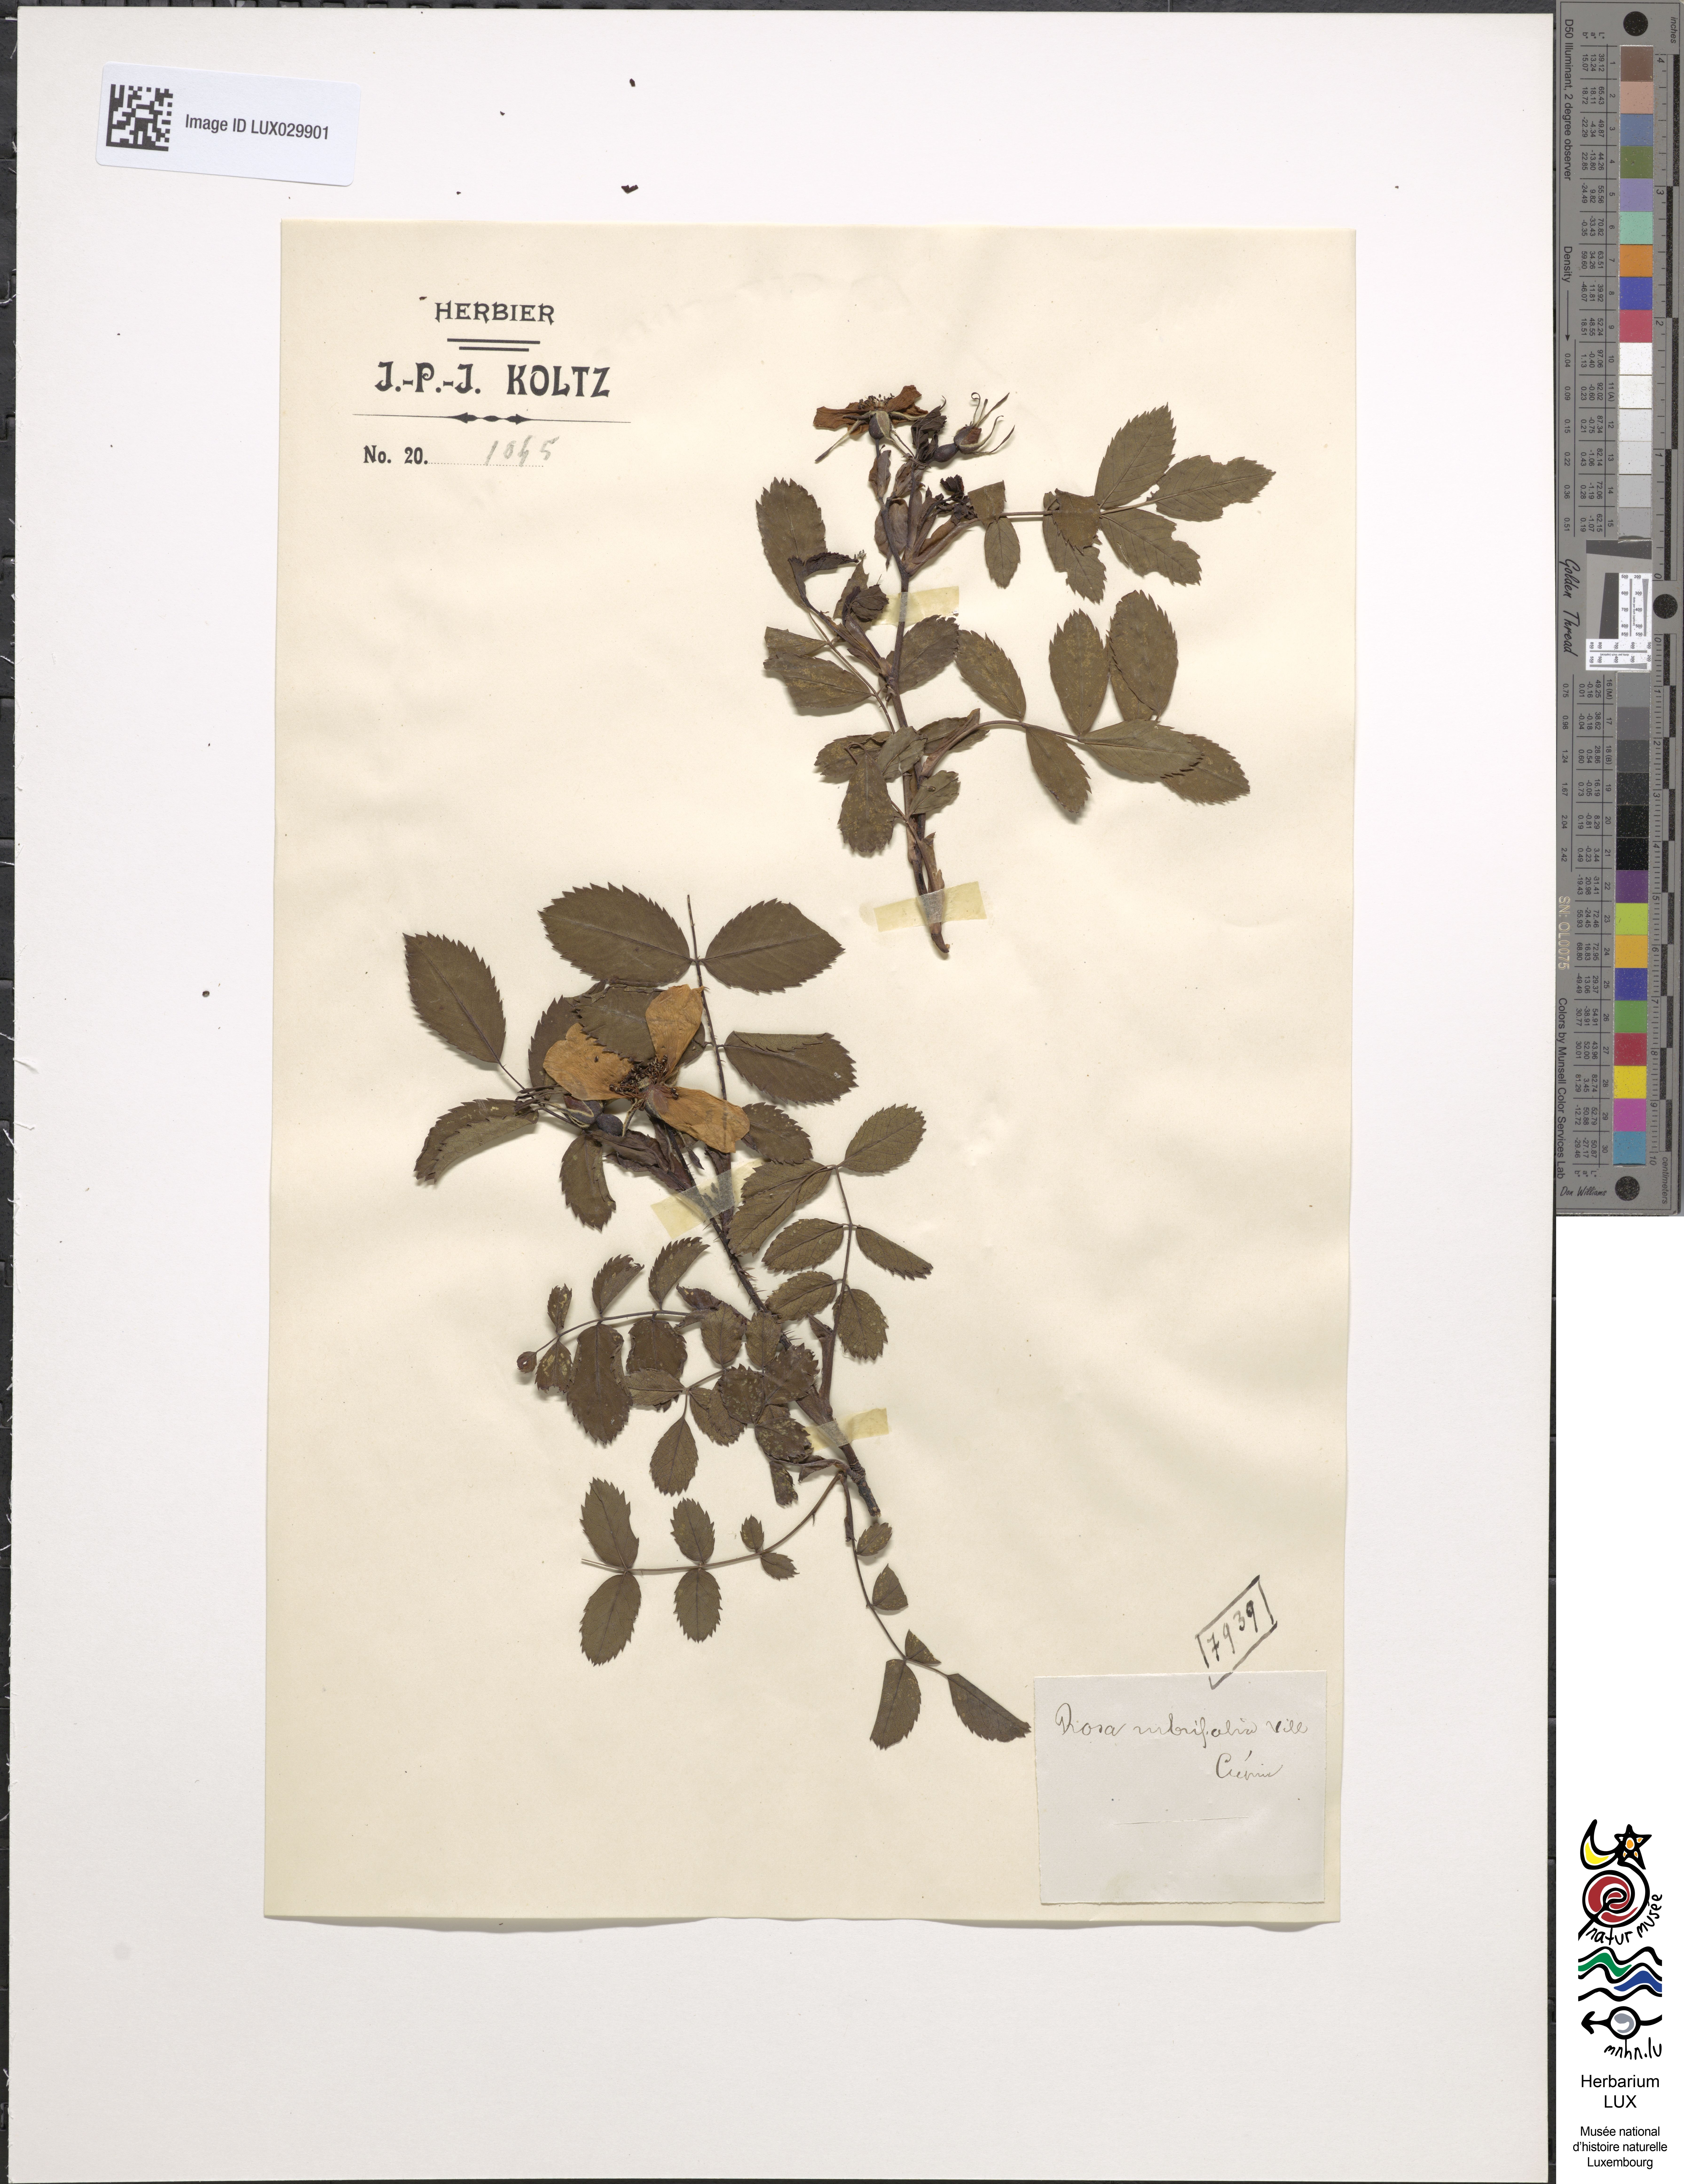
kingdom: Plantae
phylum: Tracheophyta
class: Magnoliopsida
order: Rosales
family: Rosaceae
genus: Rosa
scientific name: Rosa glauca
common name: Redleaf rose
